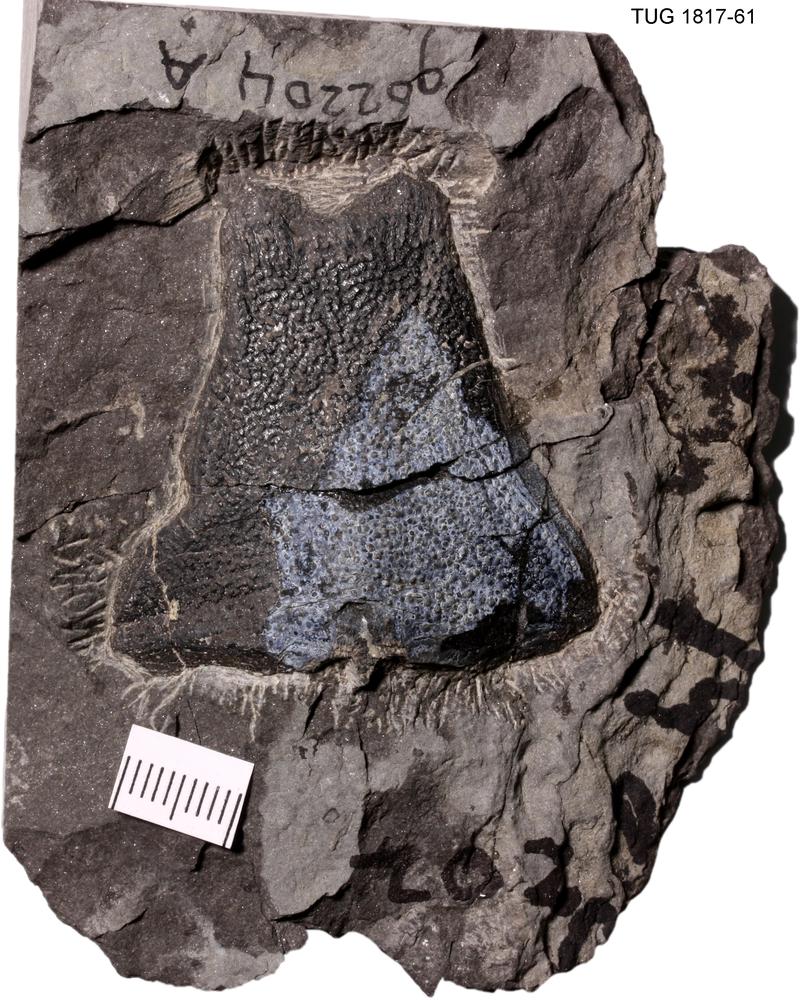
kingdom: Animalia
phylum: Chordata
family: Coccosteidae
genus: Dickosteus
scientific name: Dickosteus threiplandi
